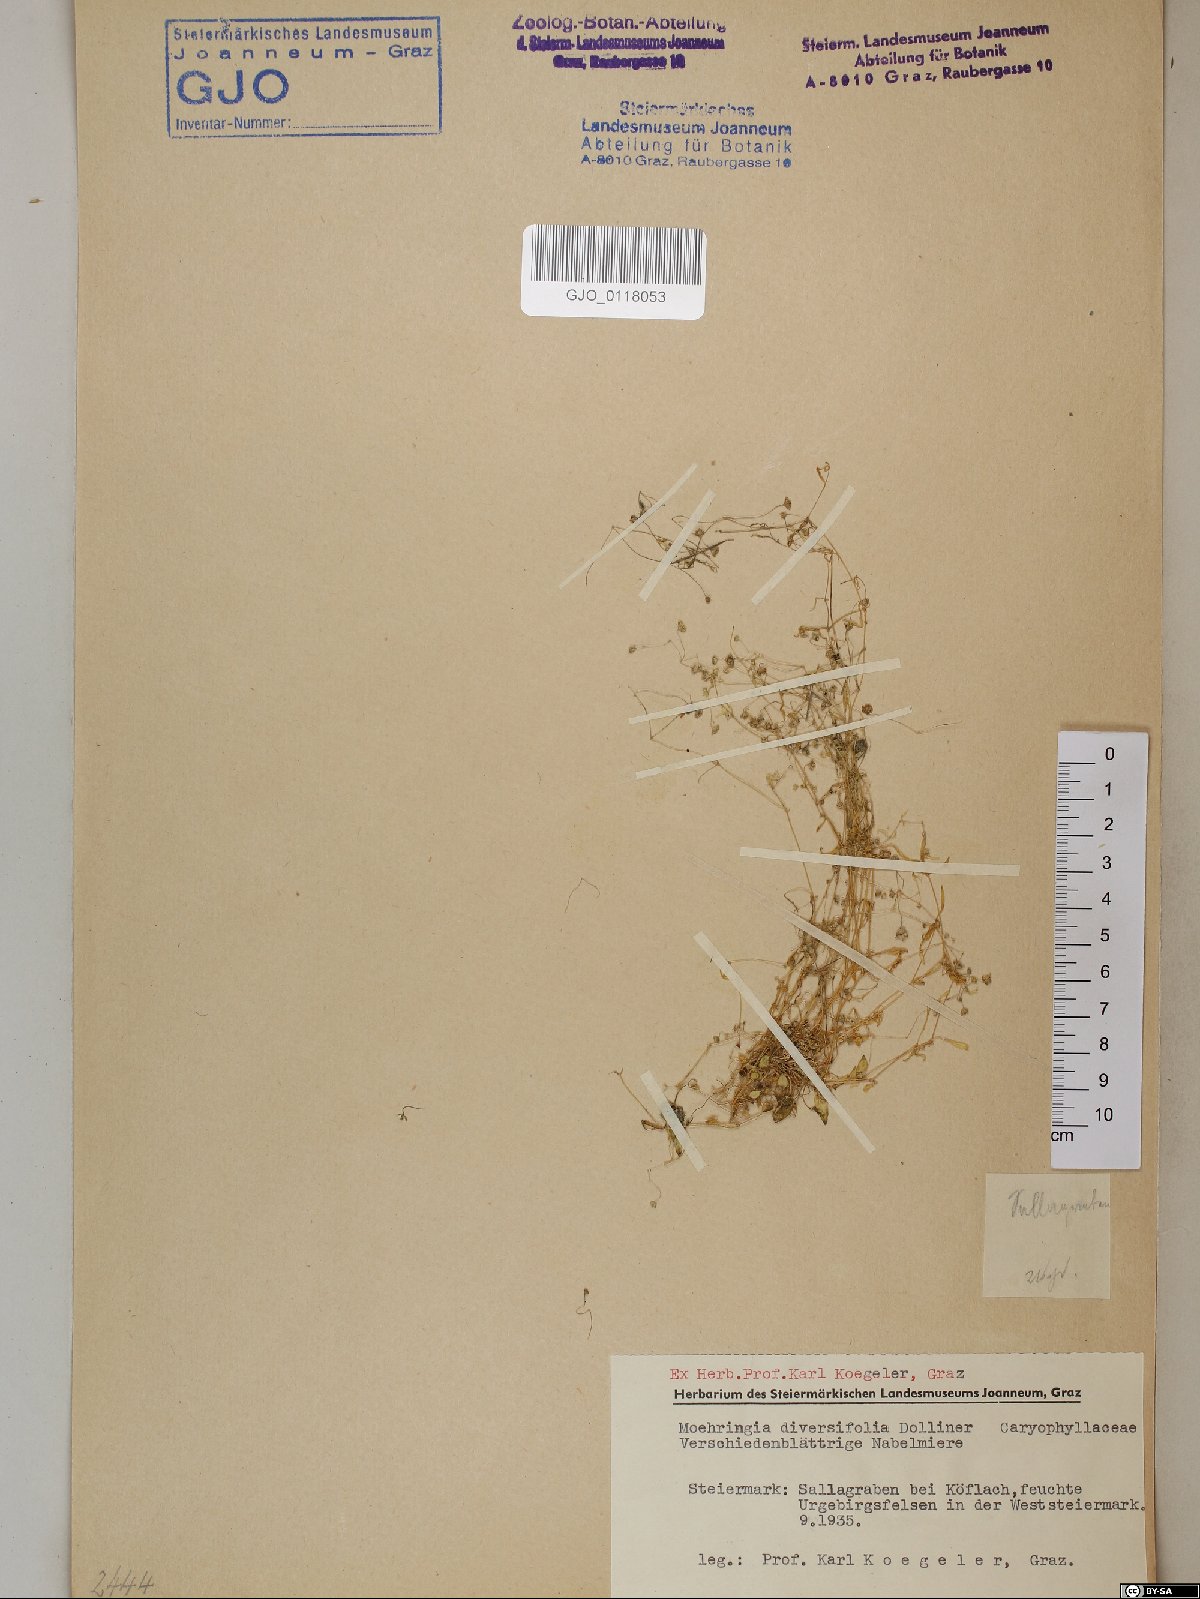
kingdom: Plantae
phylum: Tracheophyta
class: Magnoliopsida
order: Caryophyllales
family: Caryophyllaceae
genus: Moehringia
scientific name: Moehringia diversifolia
